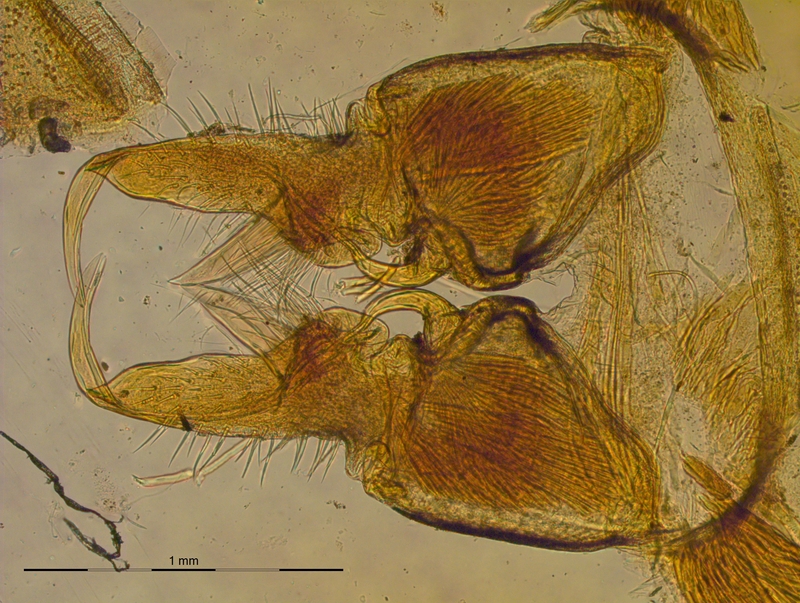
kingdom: Animalia
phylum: Arthropoda
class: Diplopoda
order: Polydesmida
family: Xystodesmidae
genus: Riukiaria
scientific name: Riukiaria
